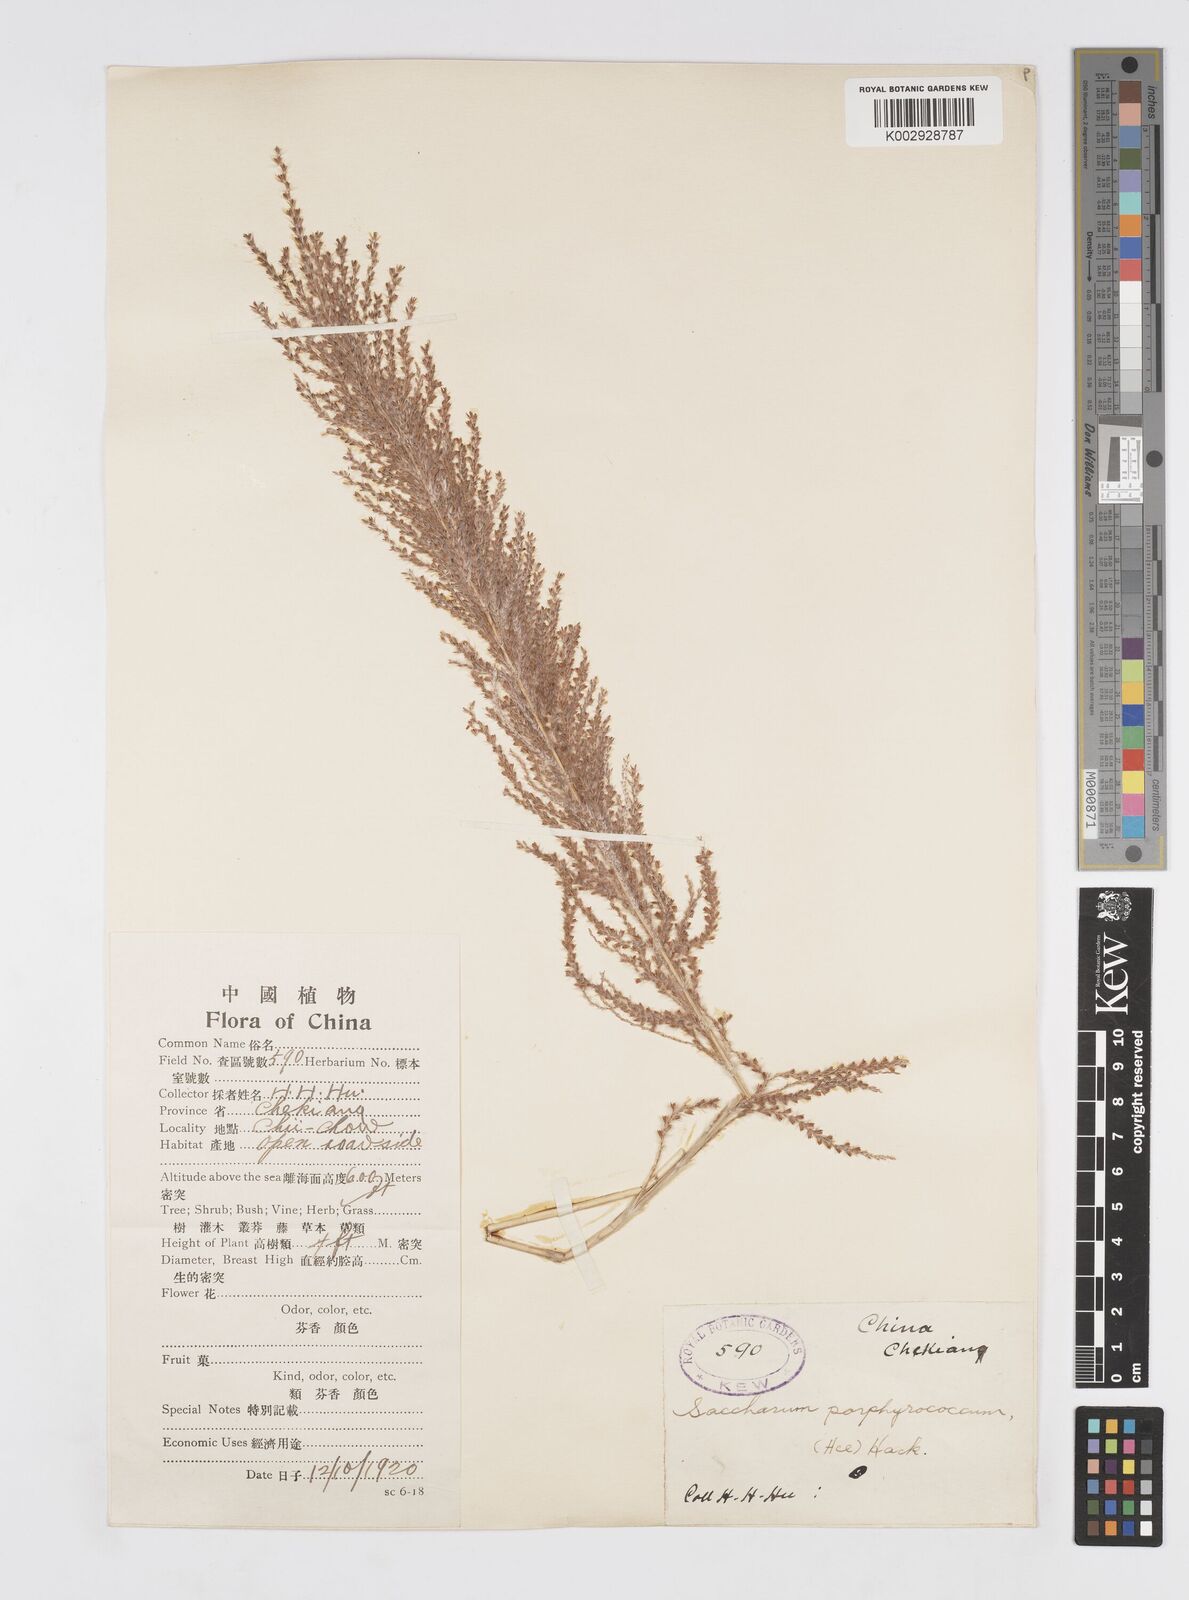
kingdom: Plantae
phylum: Tracheophyta
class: Liliopsida
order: Poales
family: Poaceae
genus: Narenga
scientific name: Narenga porphyrocoma
